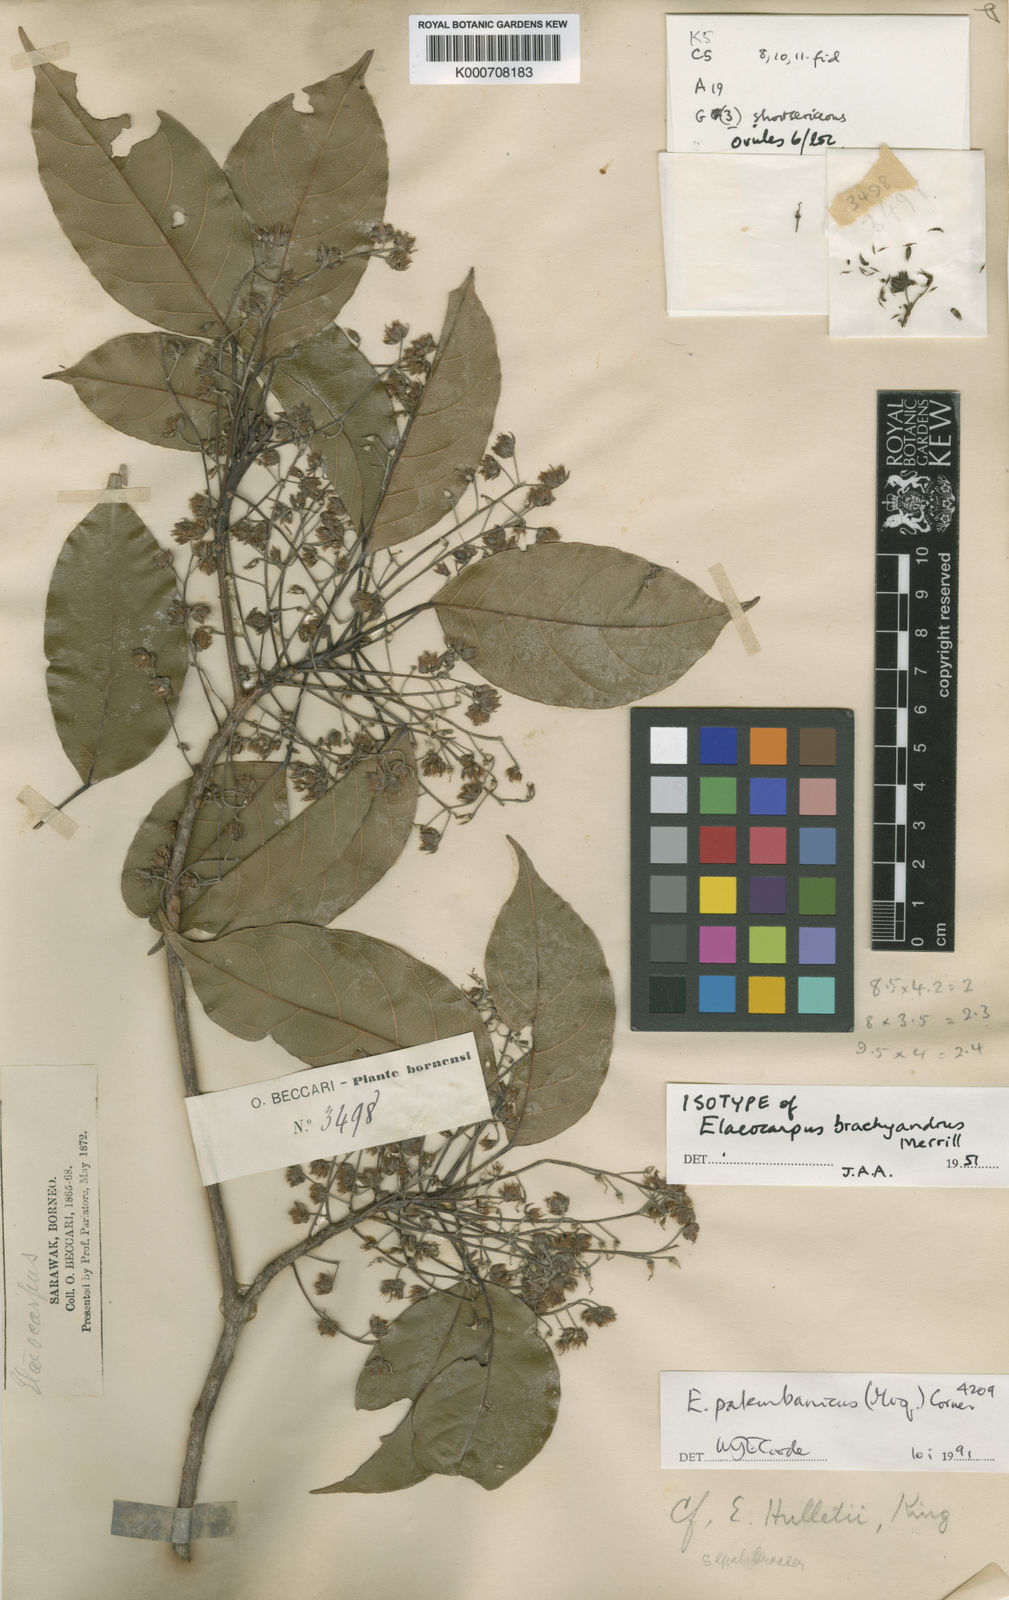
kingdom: Plantae
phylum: Tracheophyta
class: Magnoliopsida
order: Oxalidales
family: Elaeocarpaceae
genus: Elaeocarpus
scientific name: Elaeocarpus palembanicus
